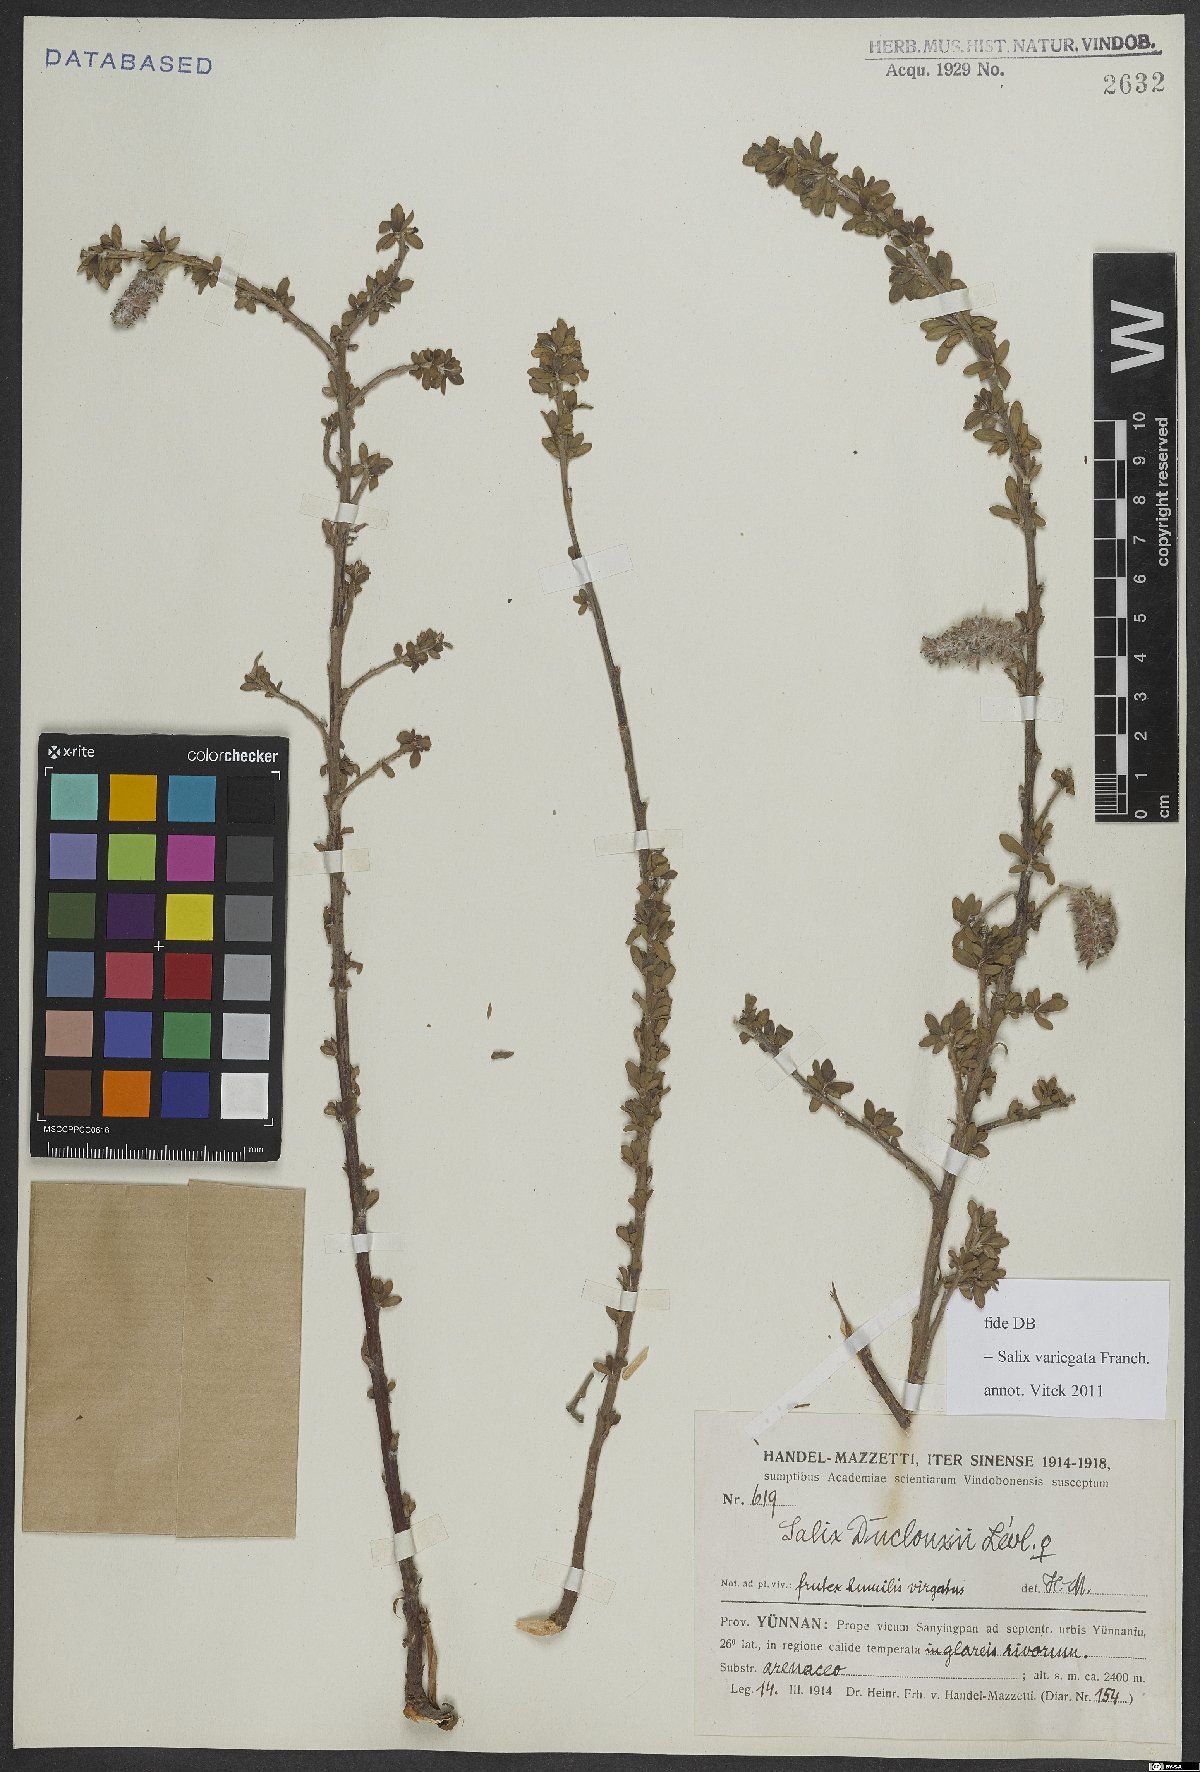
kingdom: Plantae
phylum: Tracheophyta
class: Magnoliopsida
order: Malpighiales
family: Salicaceae
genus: Salix
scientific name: Salix variegata
